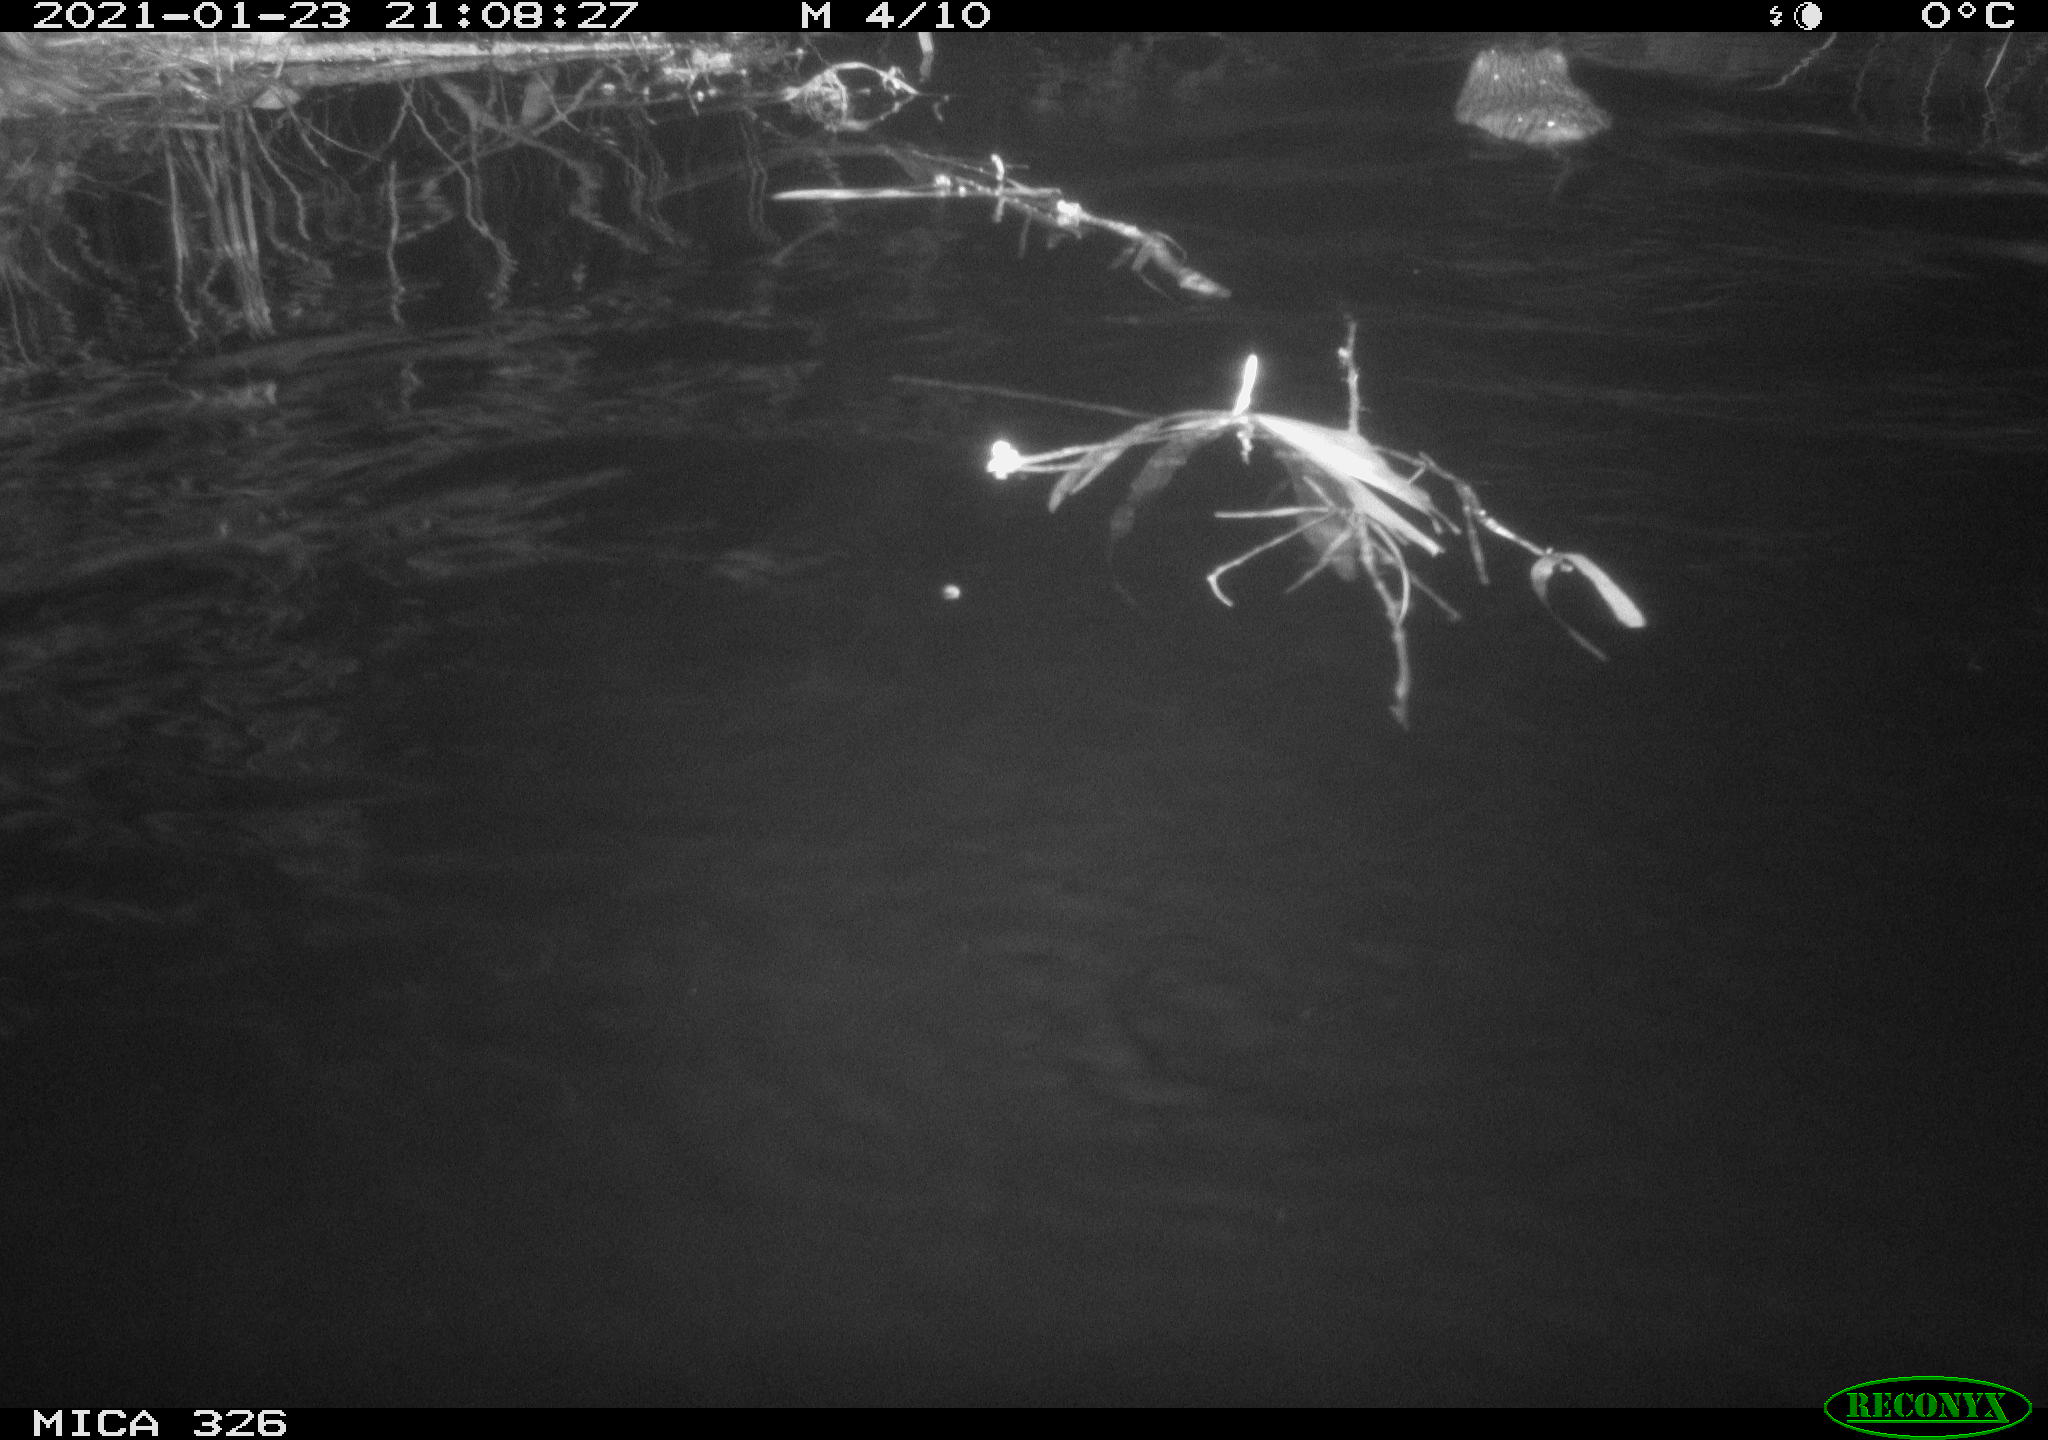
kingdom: Animalia
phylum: Chordata
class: Mammalia
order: Rodentia
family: Cricetidae
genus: Ondatra
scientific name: Ondatra zibethicus
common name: Muskrat
